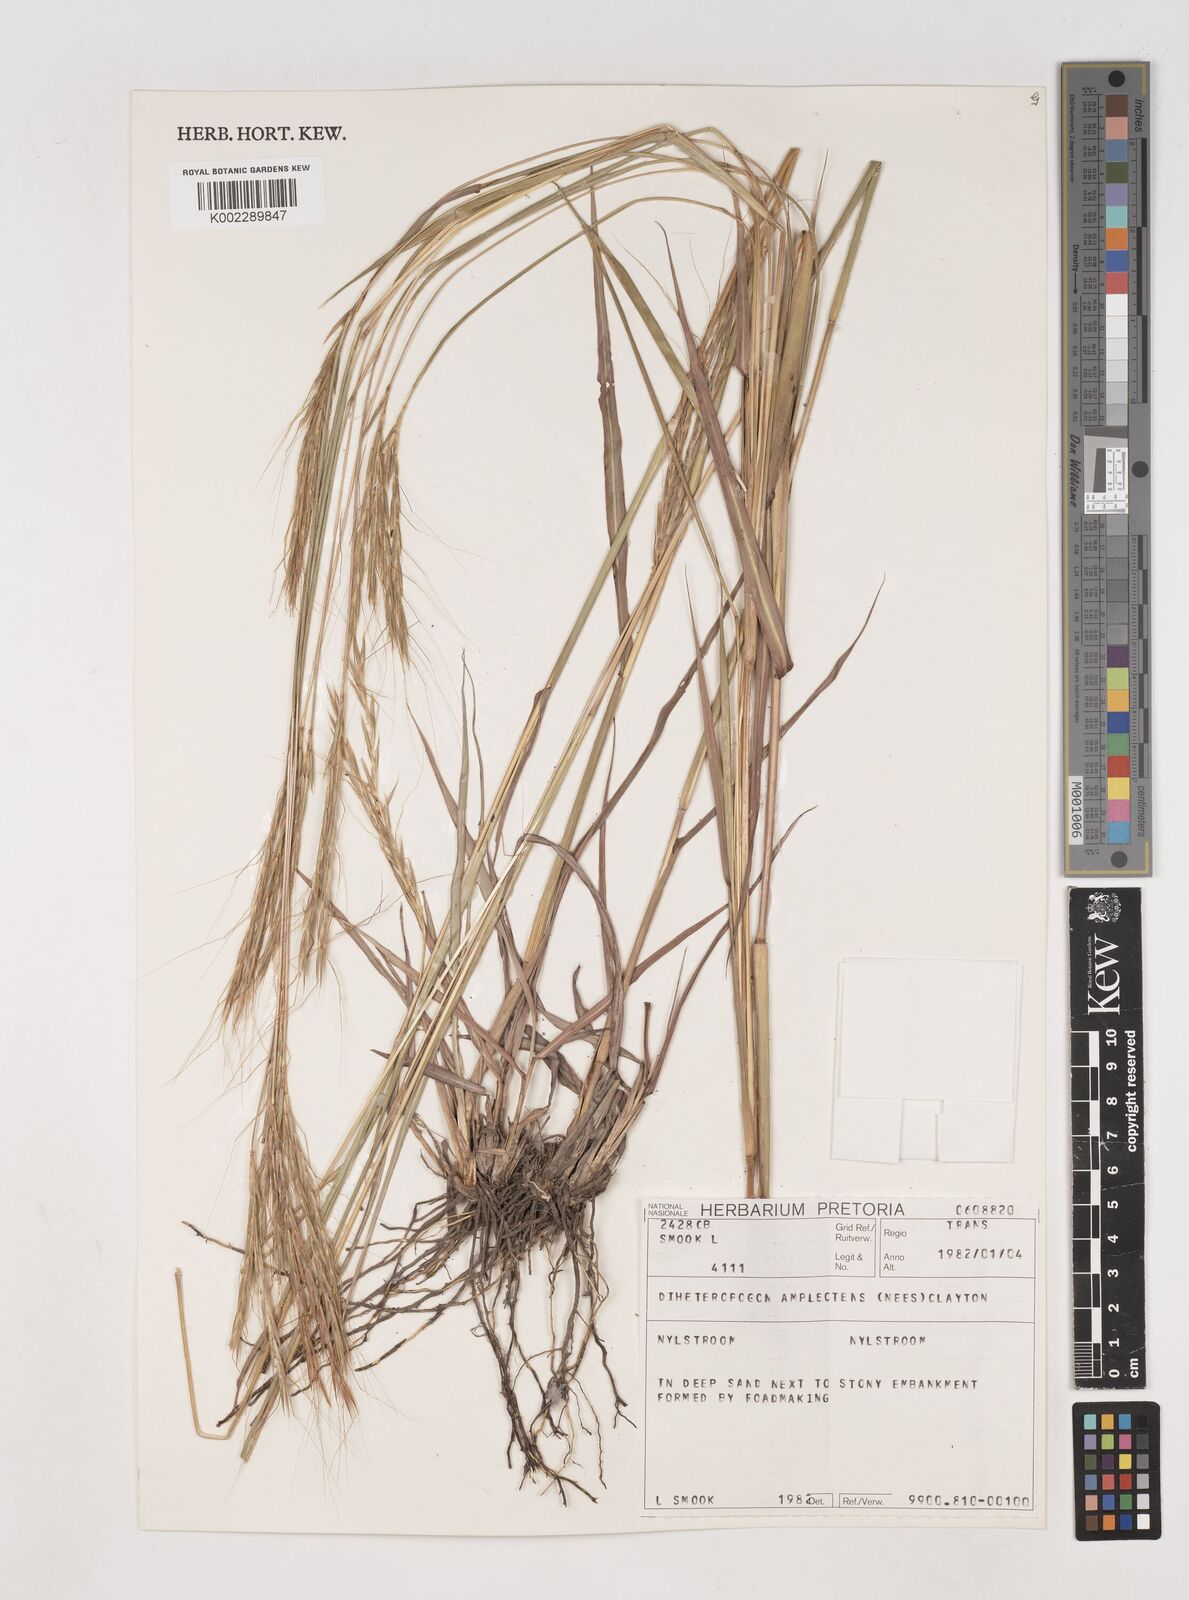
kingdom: Plantae
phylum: Tracheophyta
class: Liliopsida
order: Poales
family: Poaceae
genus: Diheteropogon
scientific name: Diheteropogon amplectens
